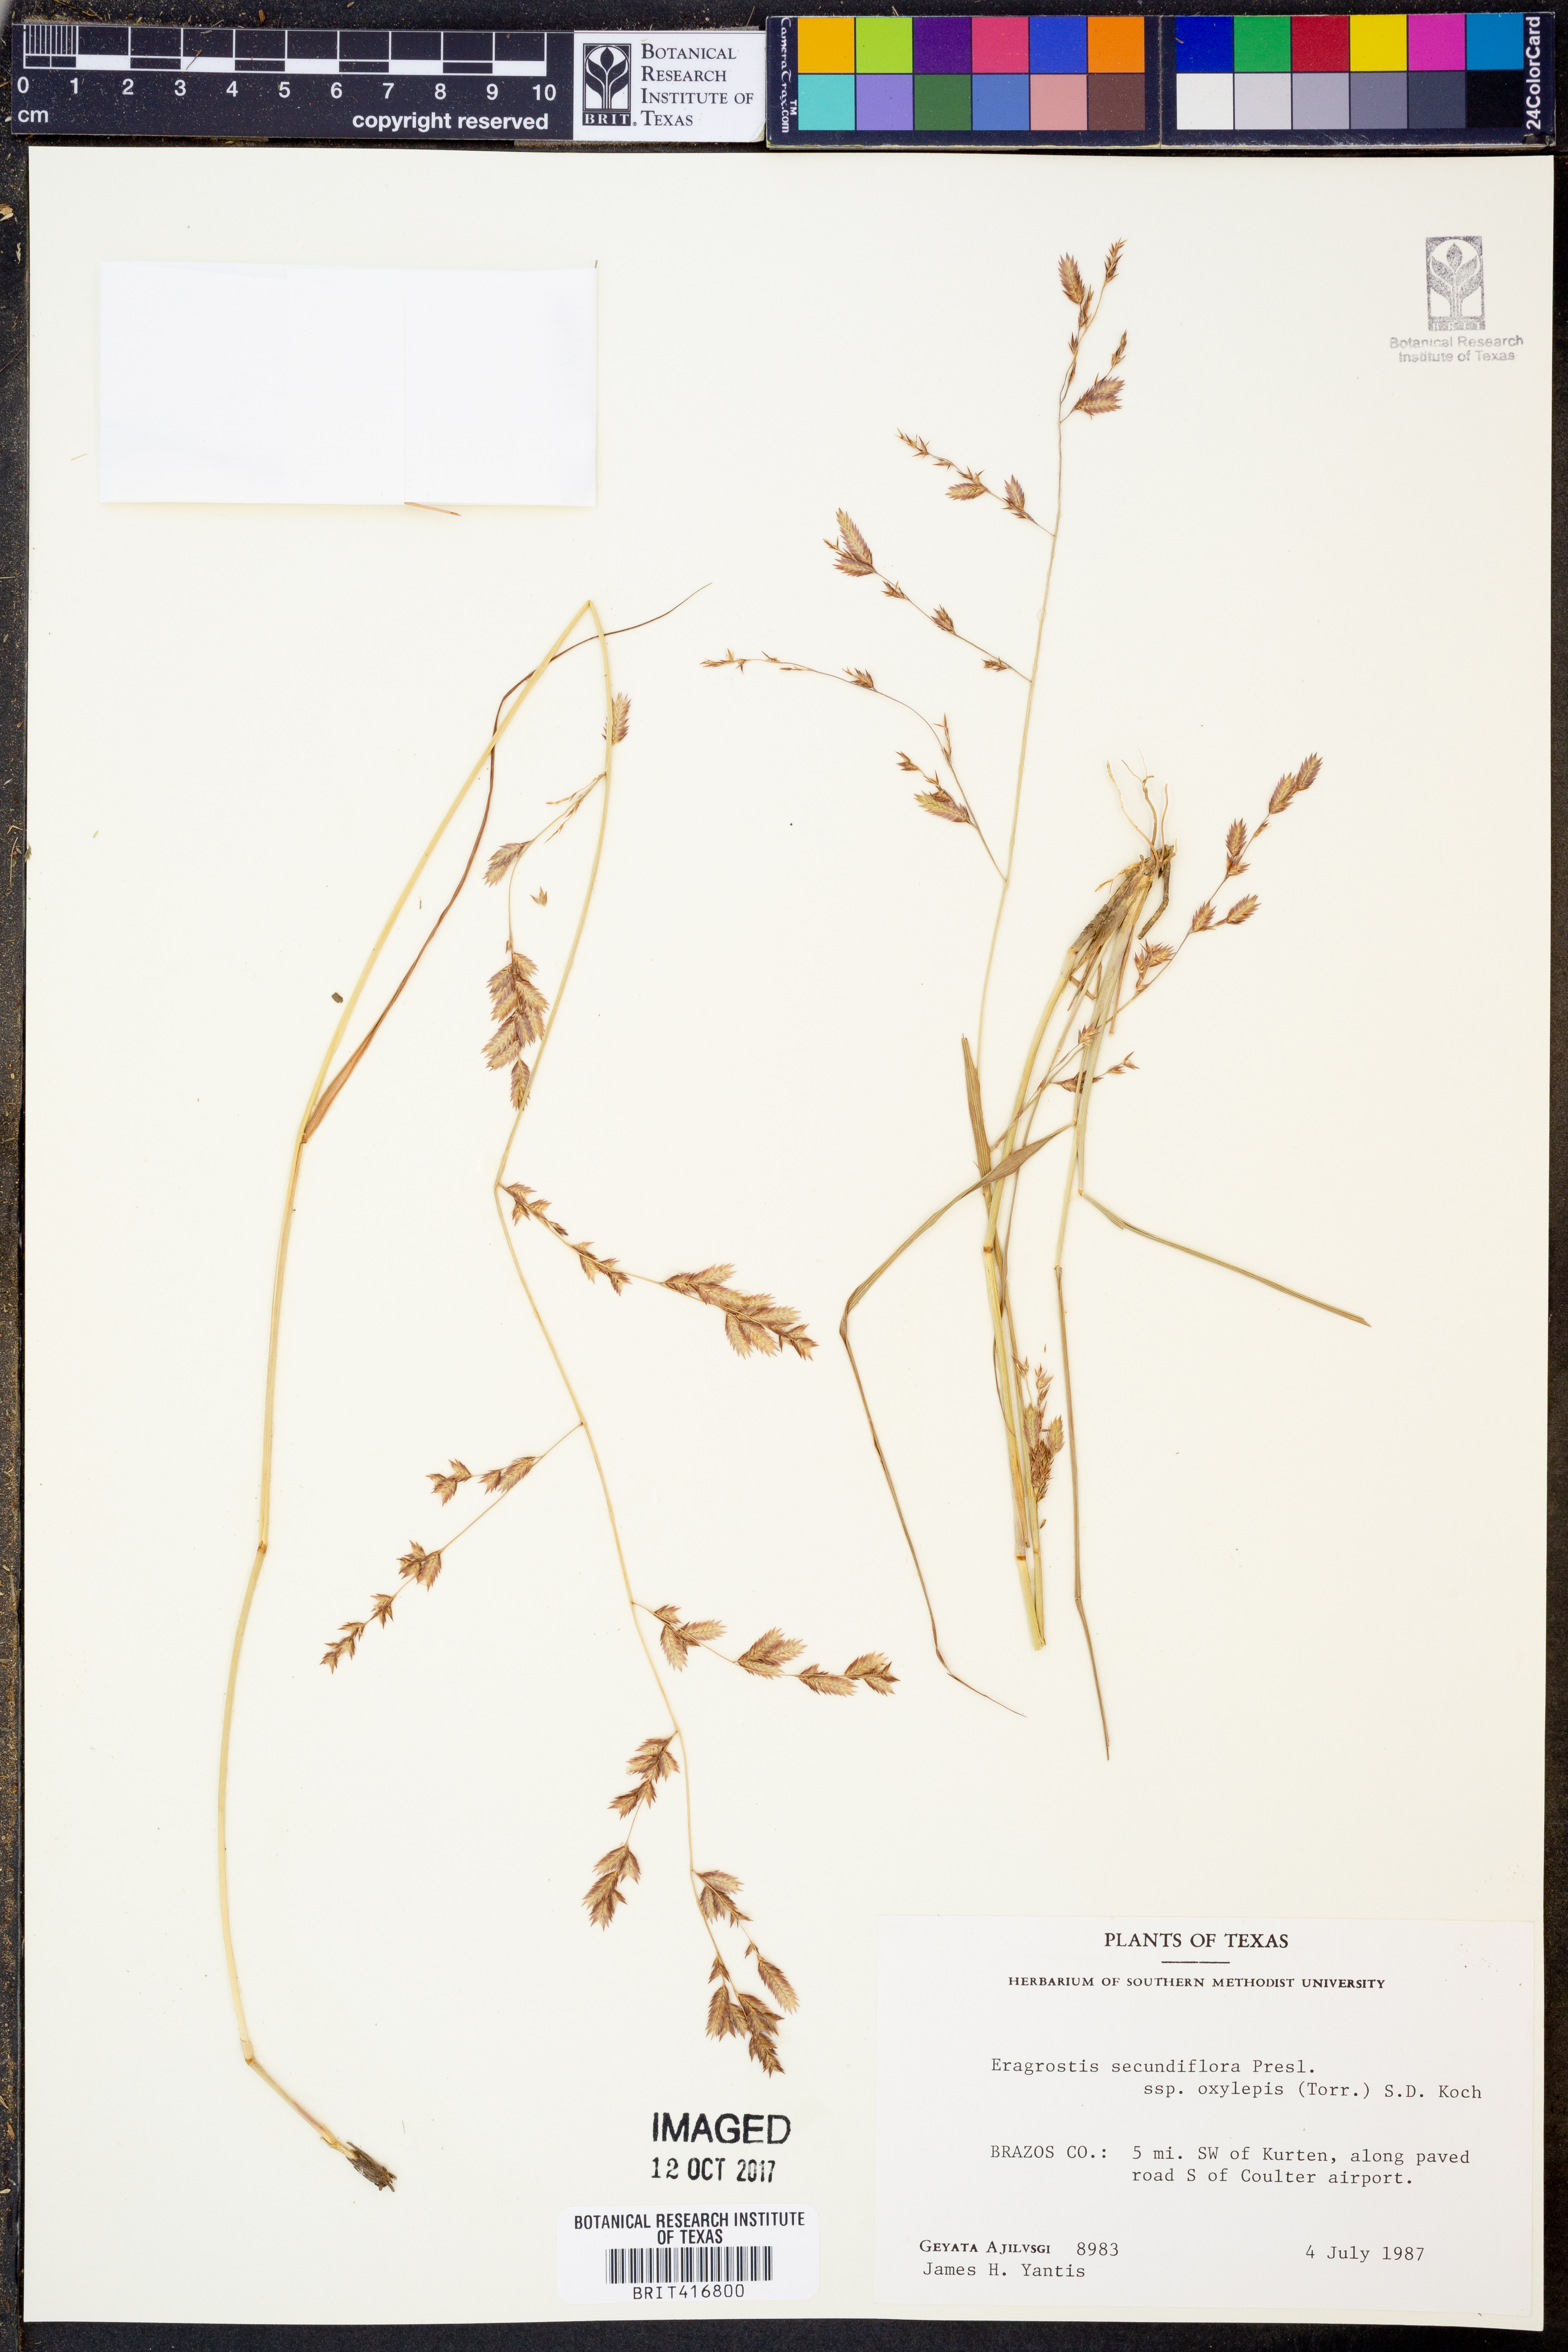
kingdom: Plantae
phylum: Tracheophyta
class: Liliopsida
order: Poales
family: Poaceae
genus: Eragrostis
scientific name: Eragrostis secundiflora
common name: Red love grass
